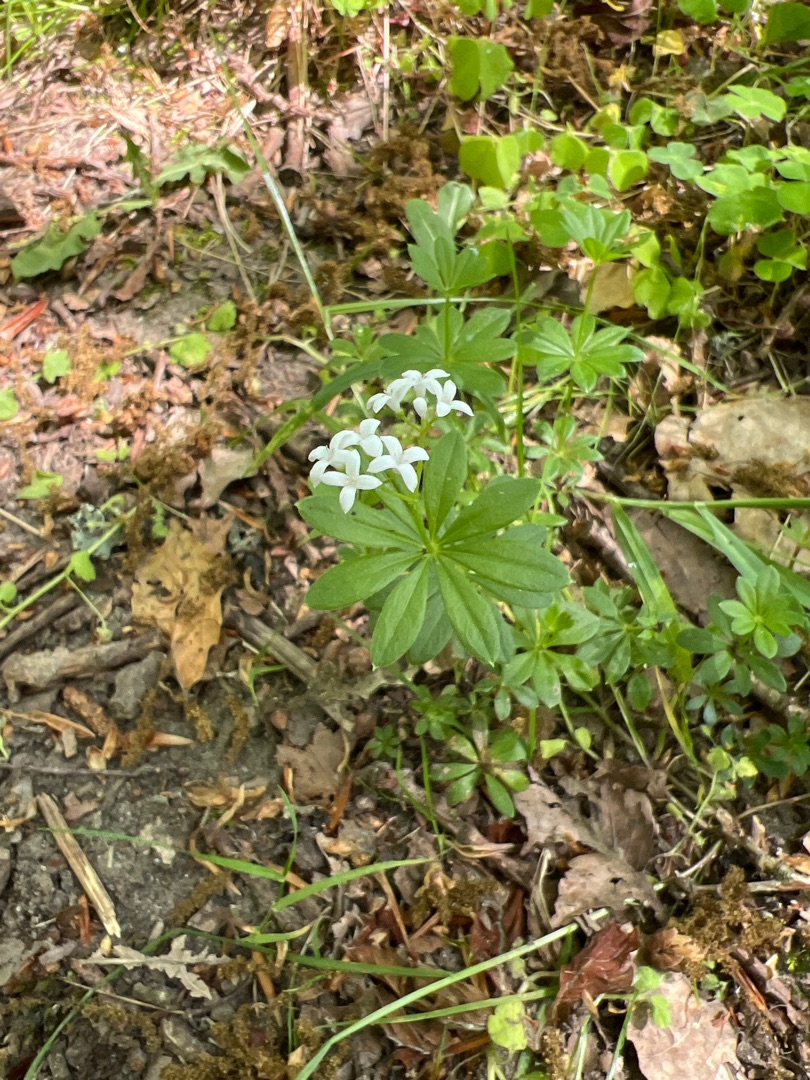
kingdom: Plantae
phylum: Tracheophyta
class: Magnoliopsida
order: Gentianales
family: Rubiaceae
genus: Galium
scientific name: Galium odoratum
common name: Skovmærke
